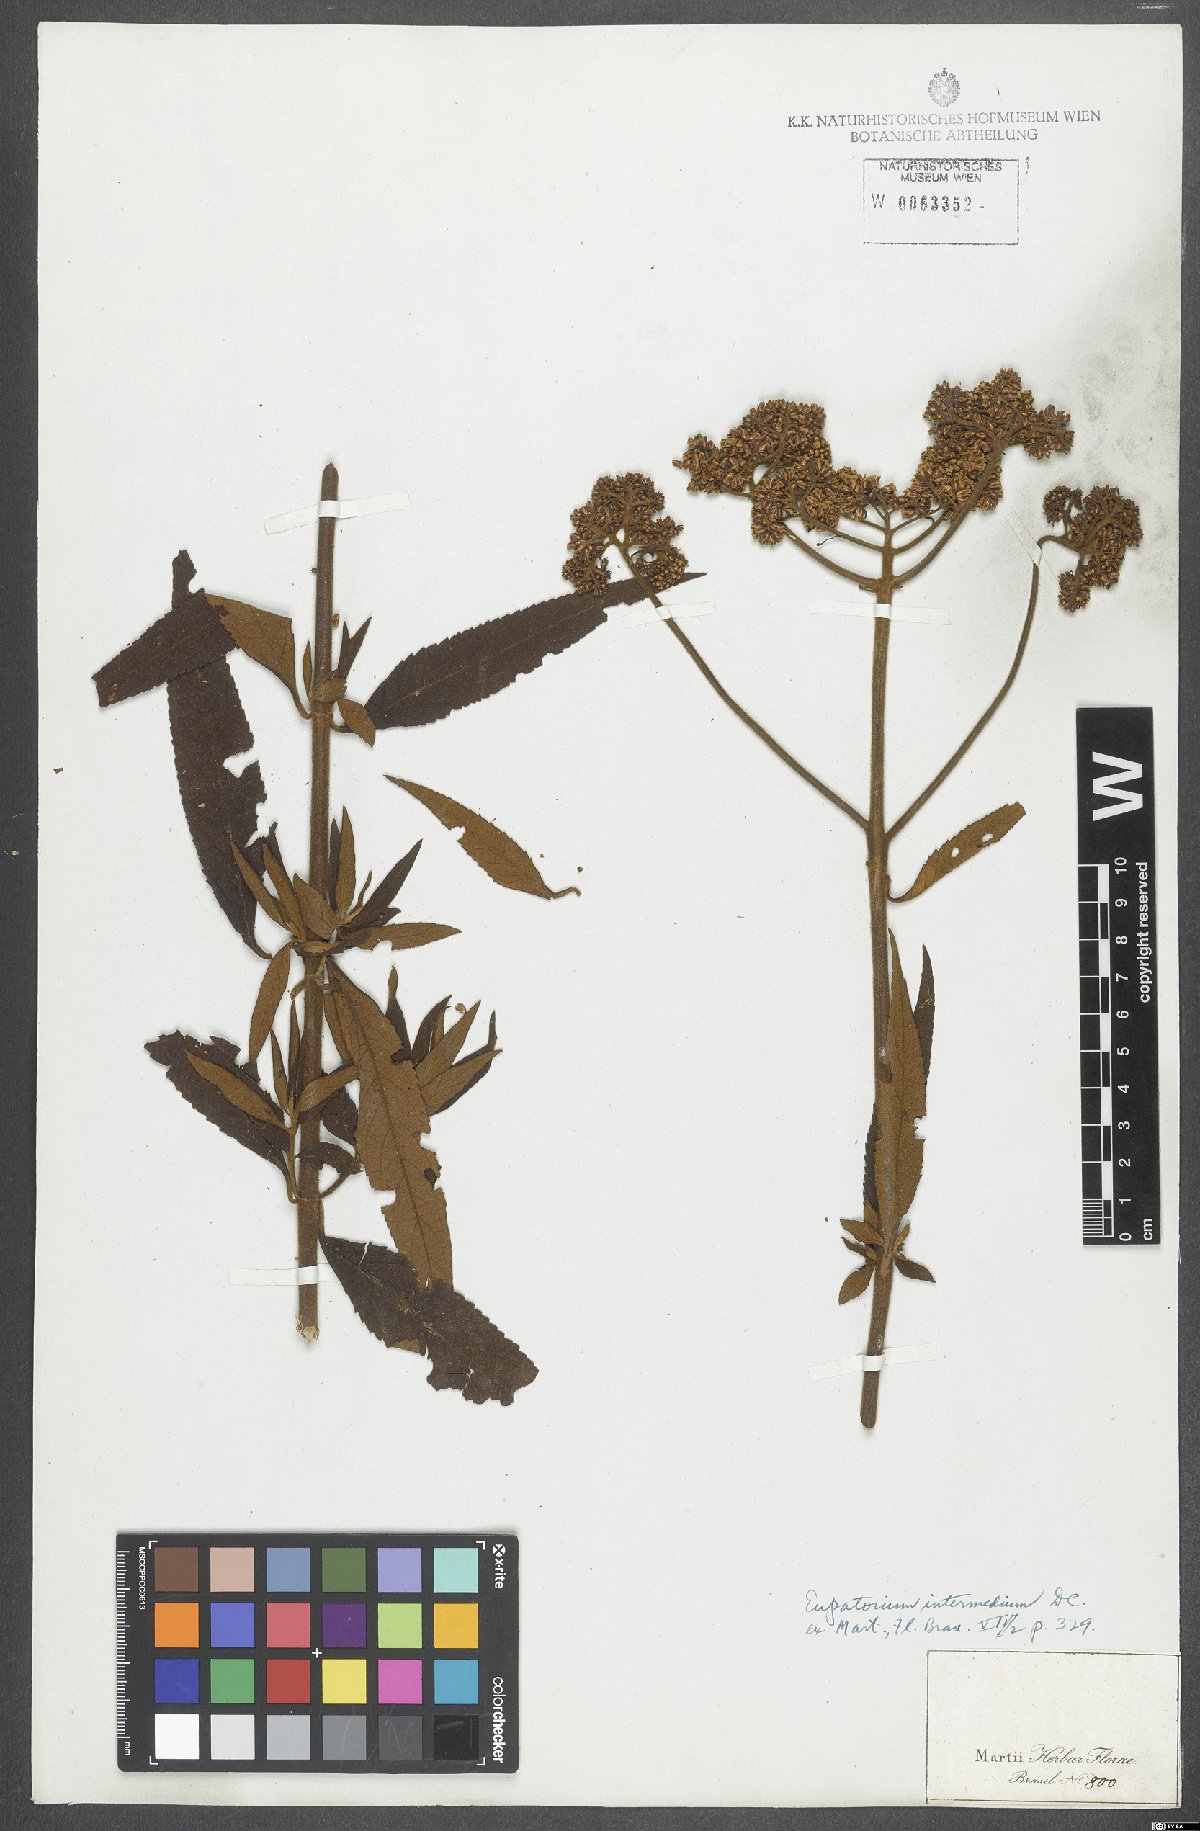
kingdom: Plantae
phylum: Tracheophyta
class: Magnoliopsida
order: Asterales
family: Asteraceae
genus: Grazielia
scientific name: Grazielia intermedia
